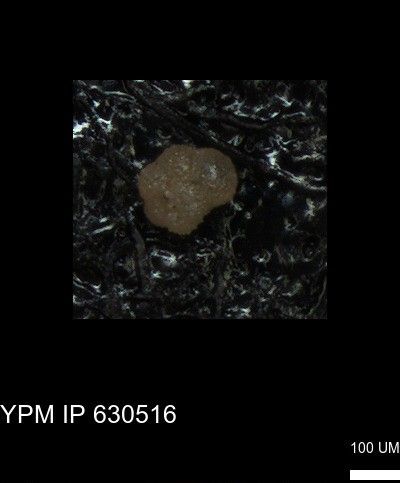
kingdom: Chromista
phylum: Foraminifera
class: Globothalamea
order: Rotaliida
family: Rugoglobigerinidae
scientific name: Rugoglobigerinidae
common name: forams
